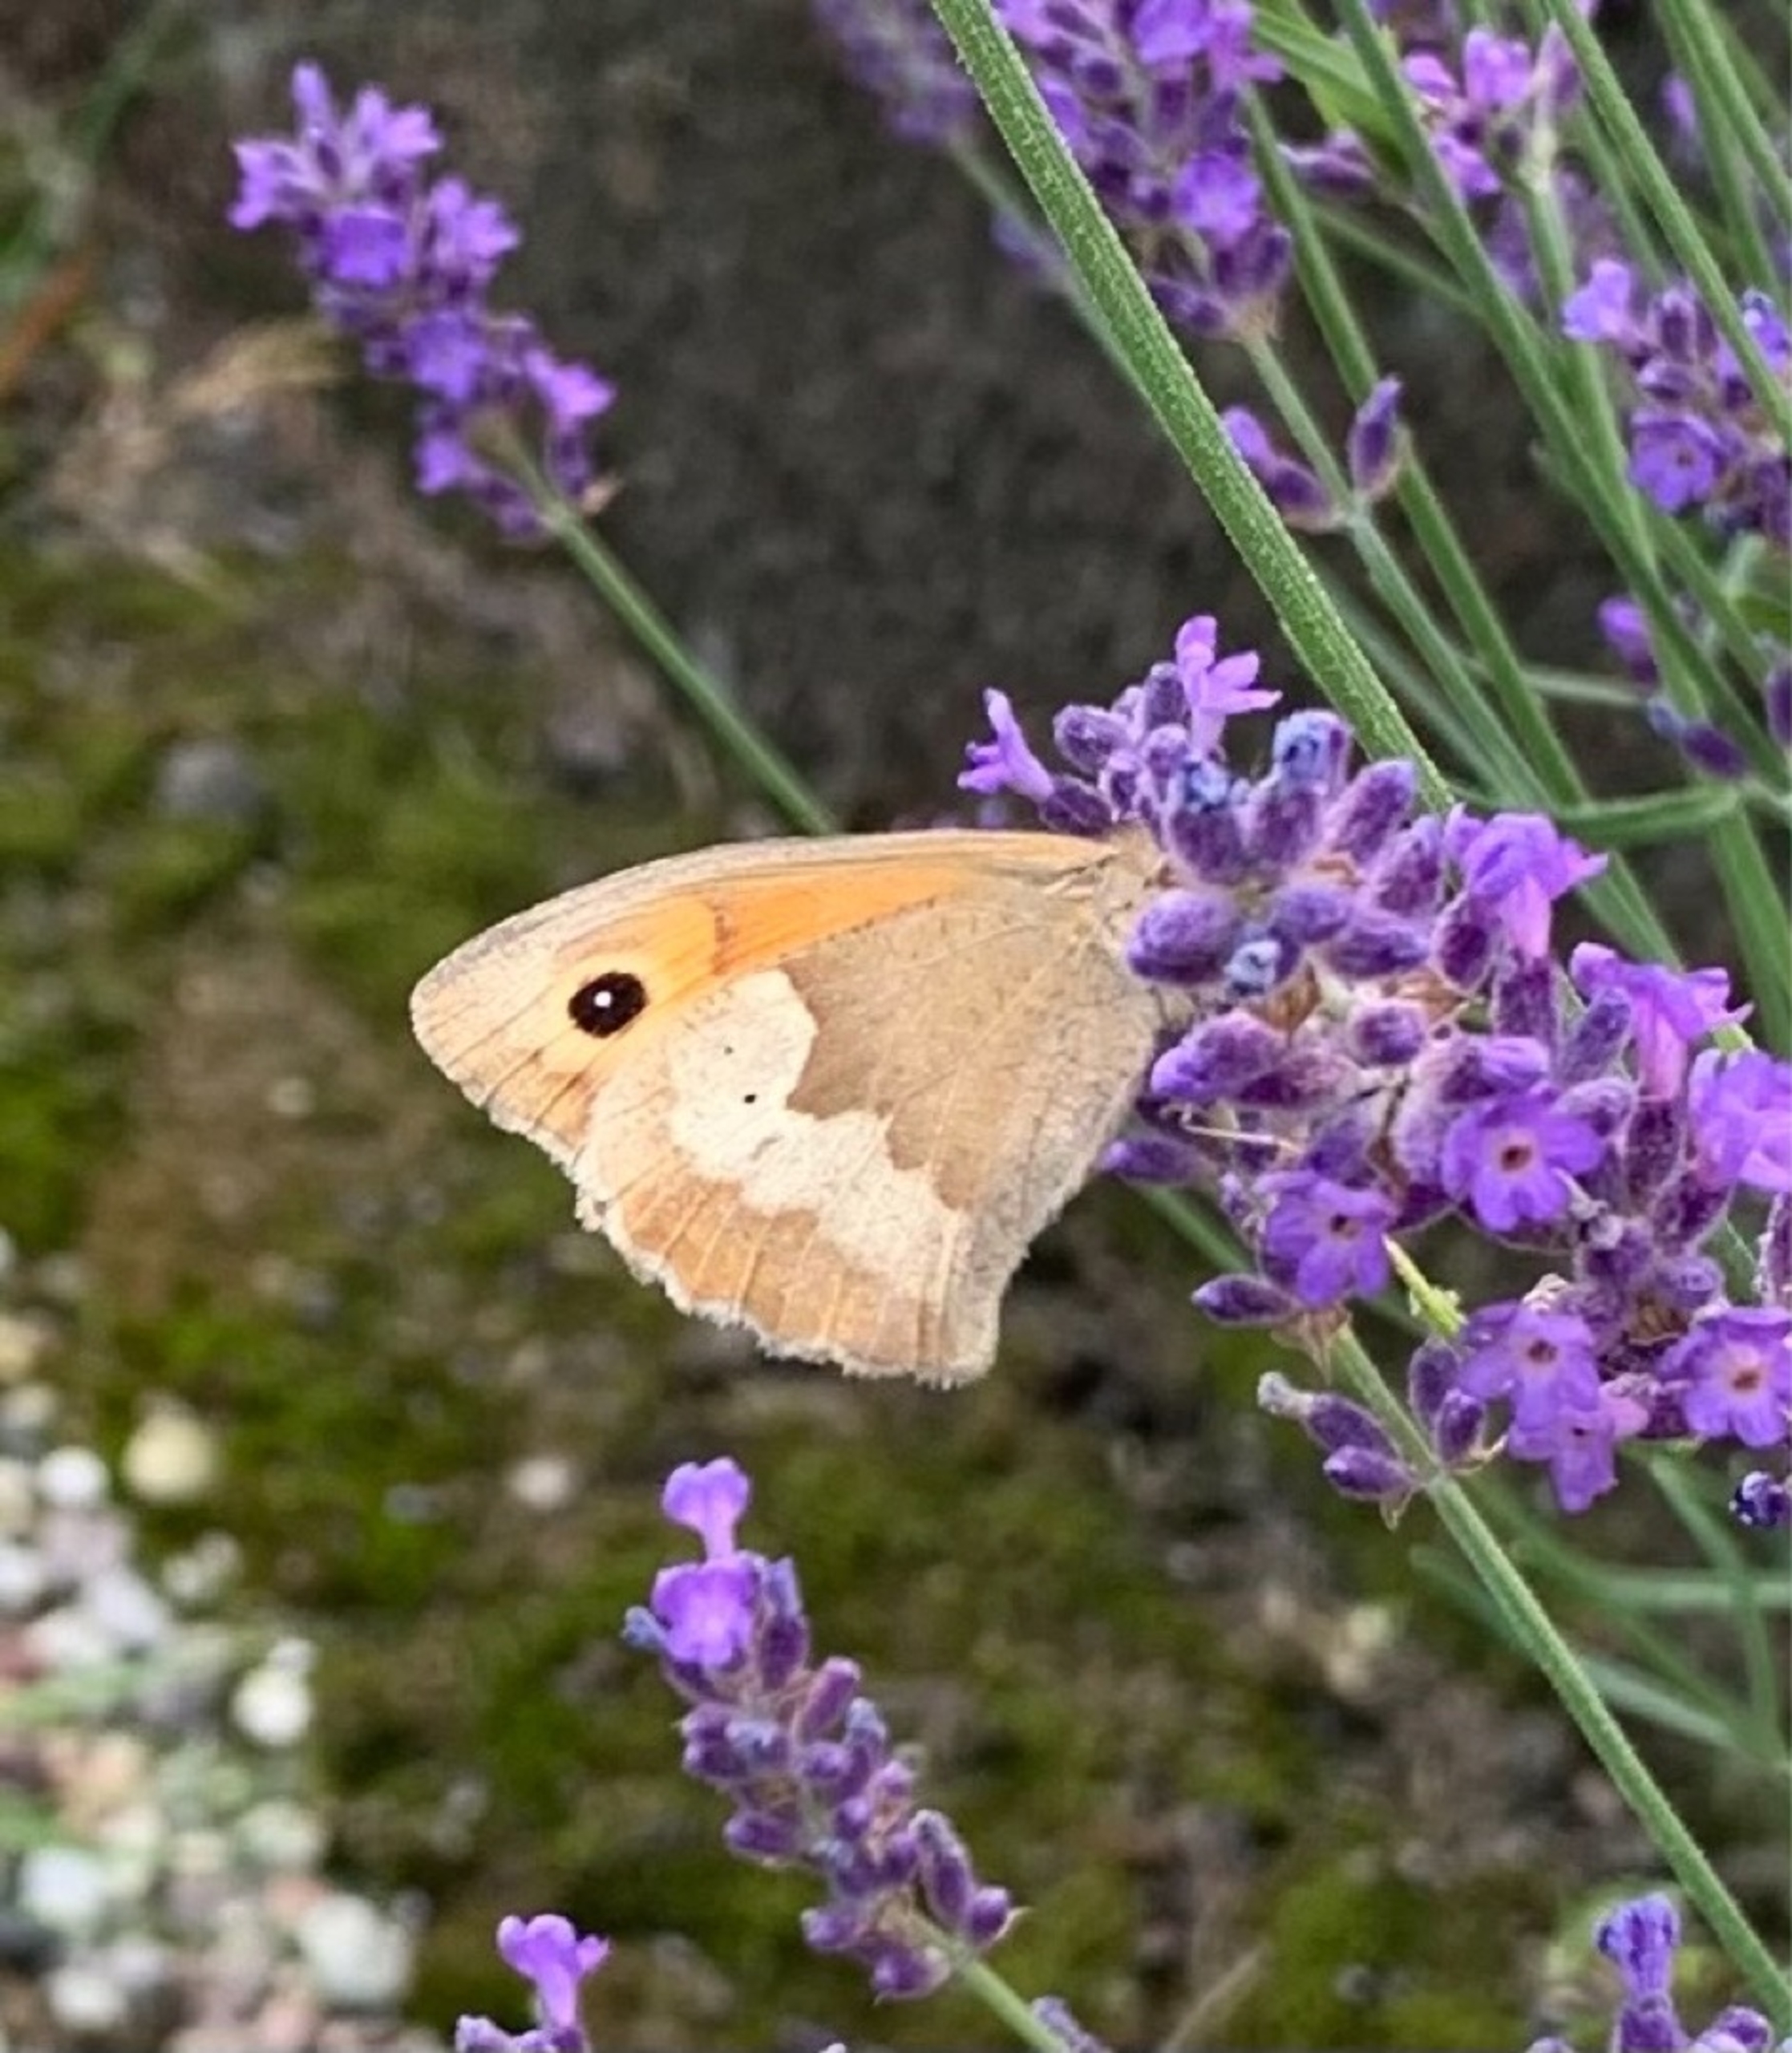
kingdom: Animalia
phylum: Arthropoda
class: Insecta
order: Lepidoptera
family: Nymphalidae
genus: Maniola
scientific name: Maniola jurtina
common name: Græsrandøje
